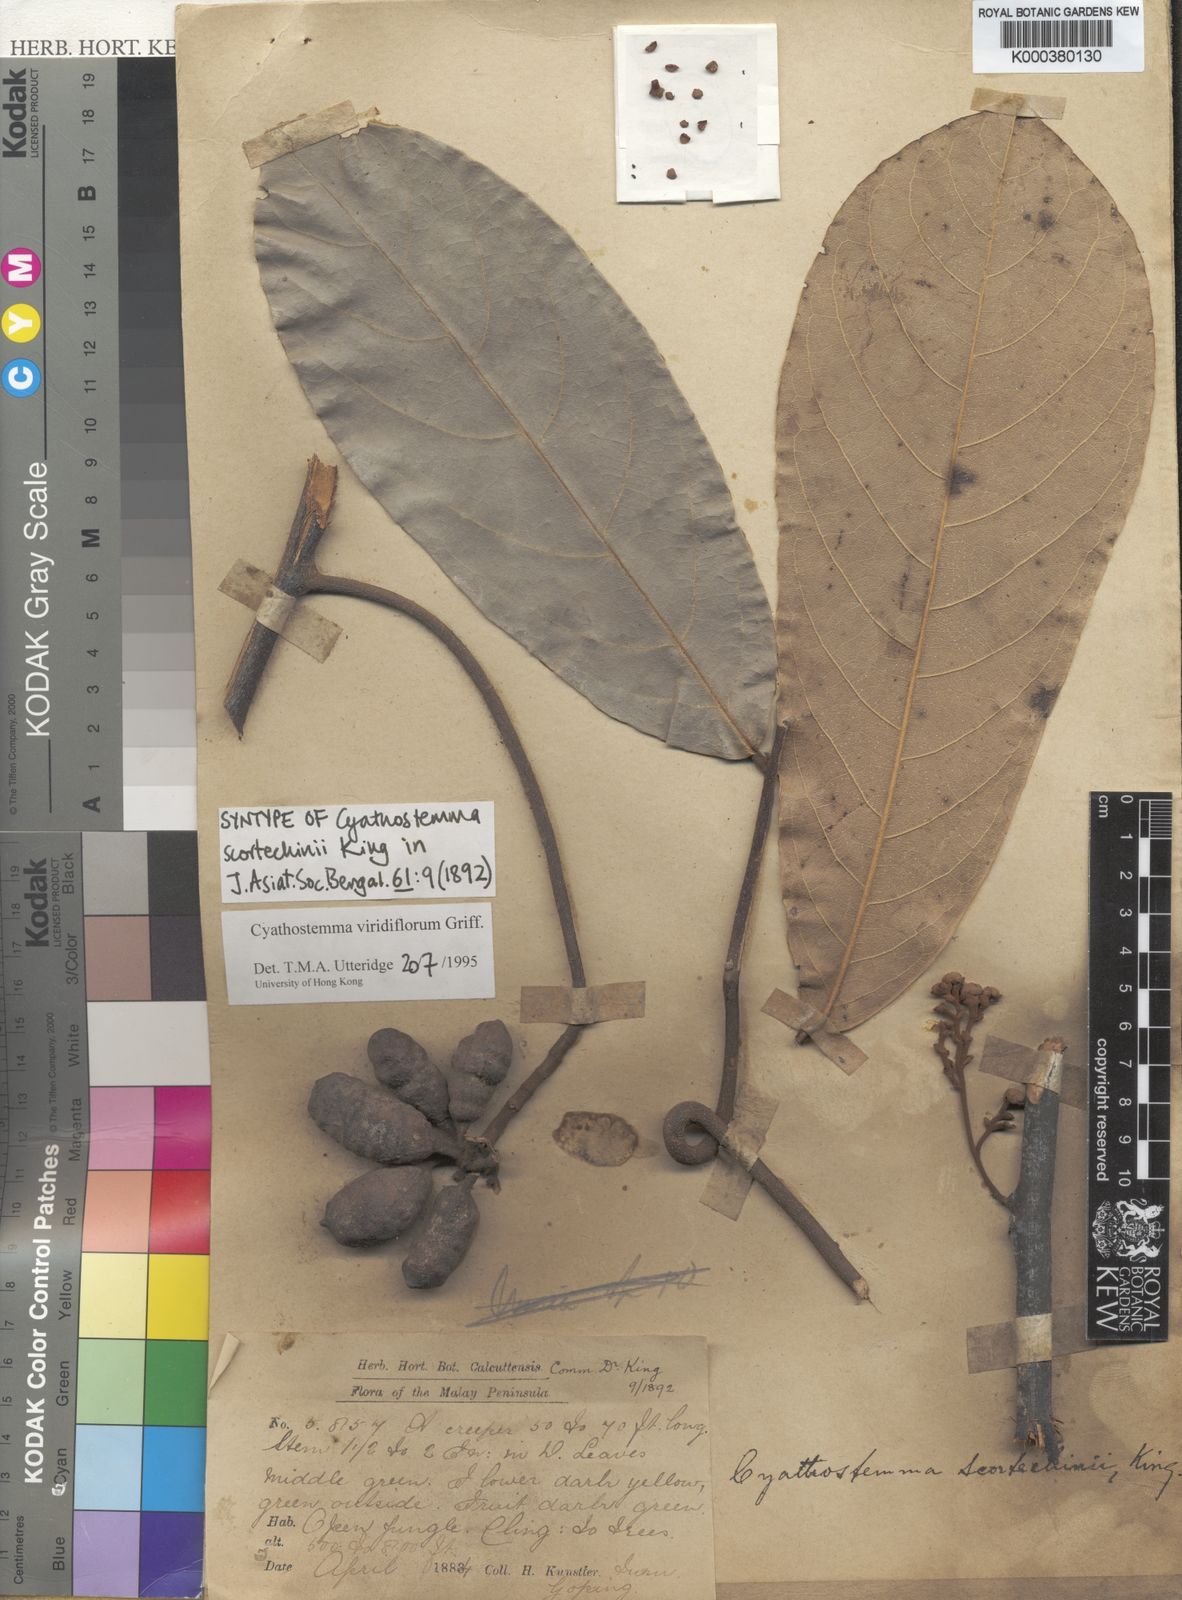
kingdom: Plantae
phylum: Tracheophyta
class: Magnoliopsida
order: Magnoliales
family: Annonaceae
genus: Uvaria
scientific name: Uvaria griffithii
